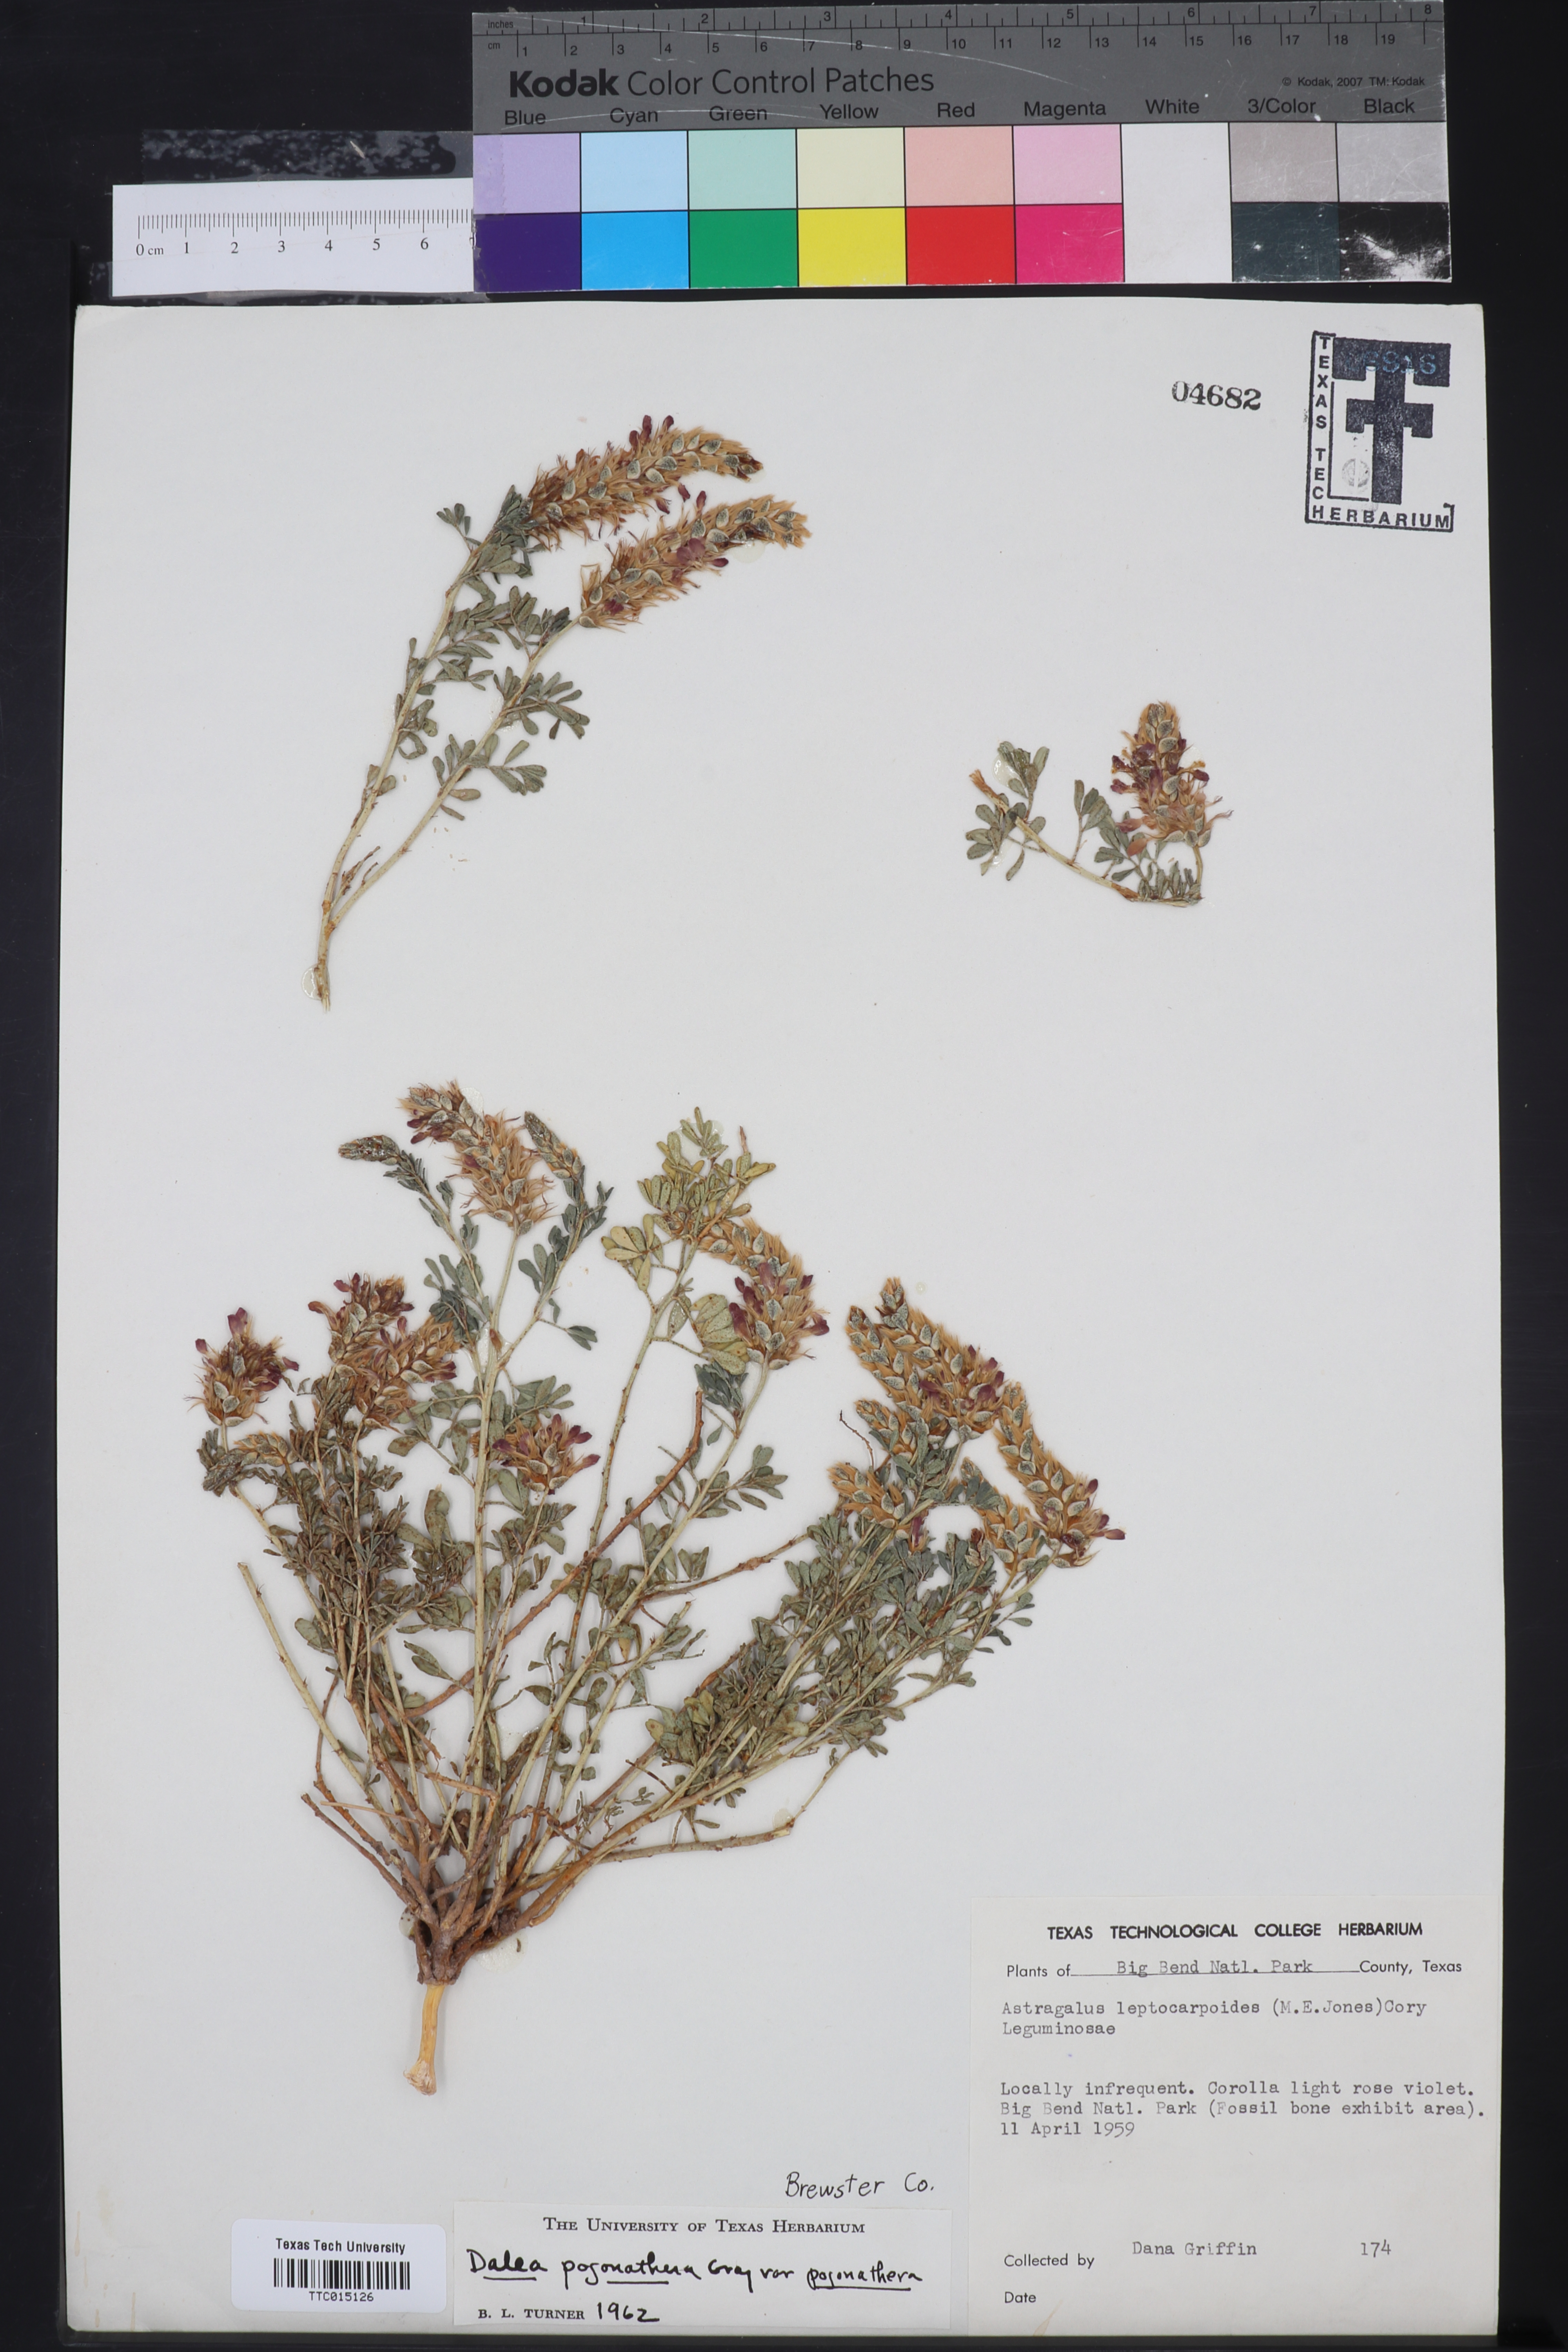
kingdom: Plantae
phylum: Tracheophyta
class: Magnoliopsida
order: Fabales
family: Fabaceae
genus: Dalea
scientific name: Dalea pogonathera
